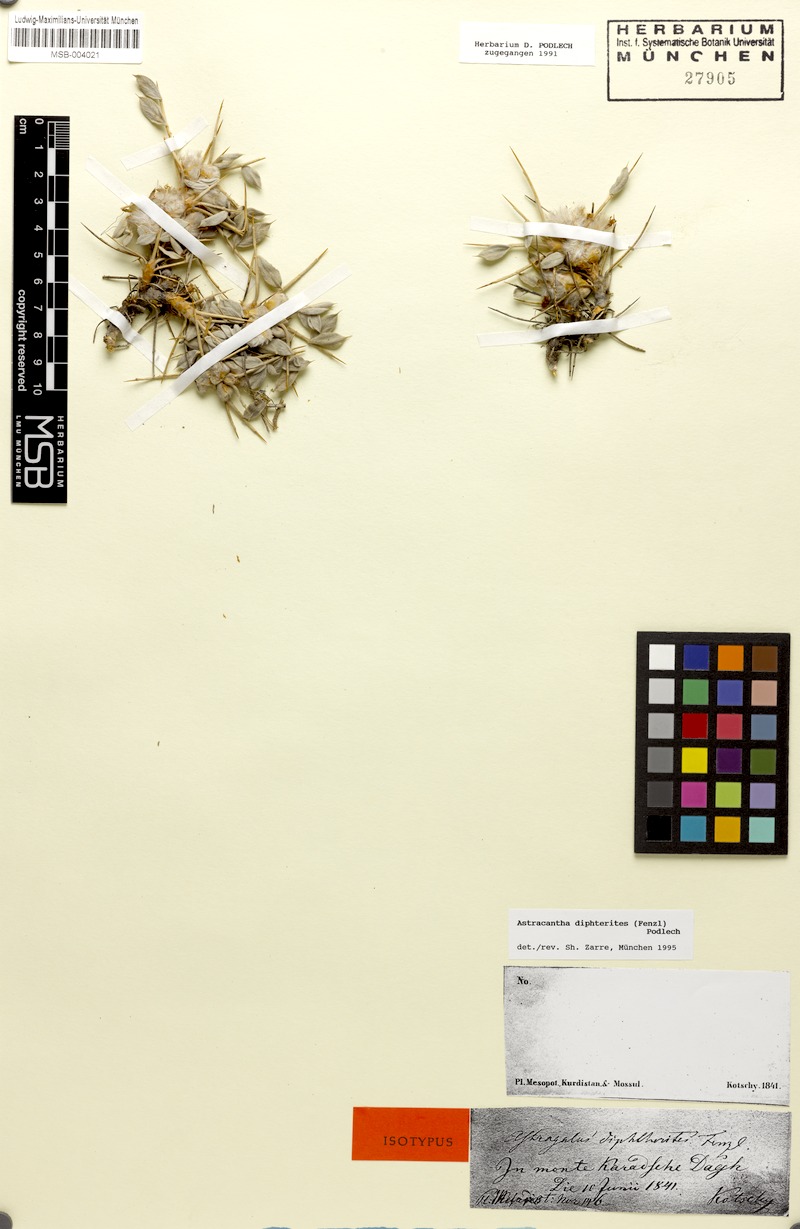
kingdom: Plantae
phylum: Tracheophyta
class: Magnoliopsida
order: Fabales
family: Fabaceae
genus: Astragalus
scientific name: Astragalus diphtherites
